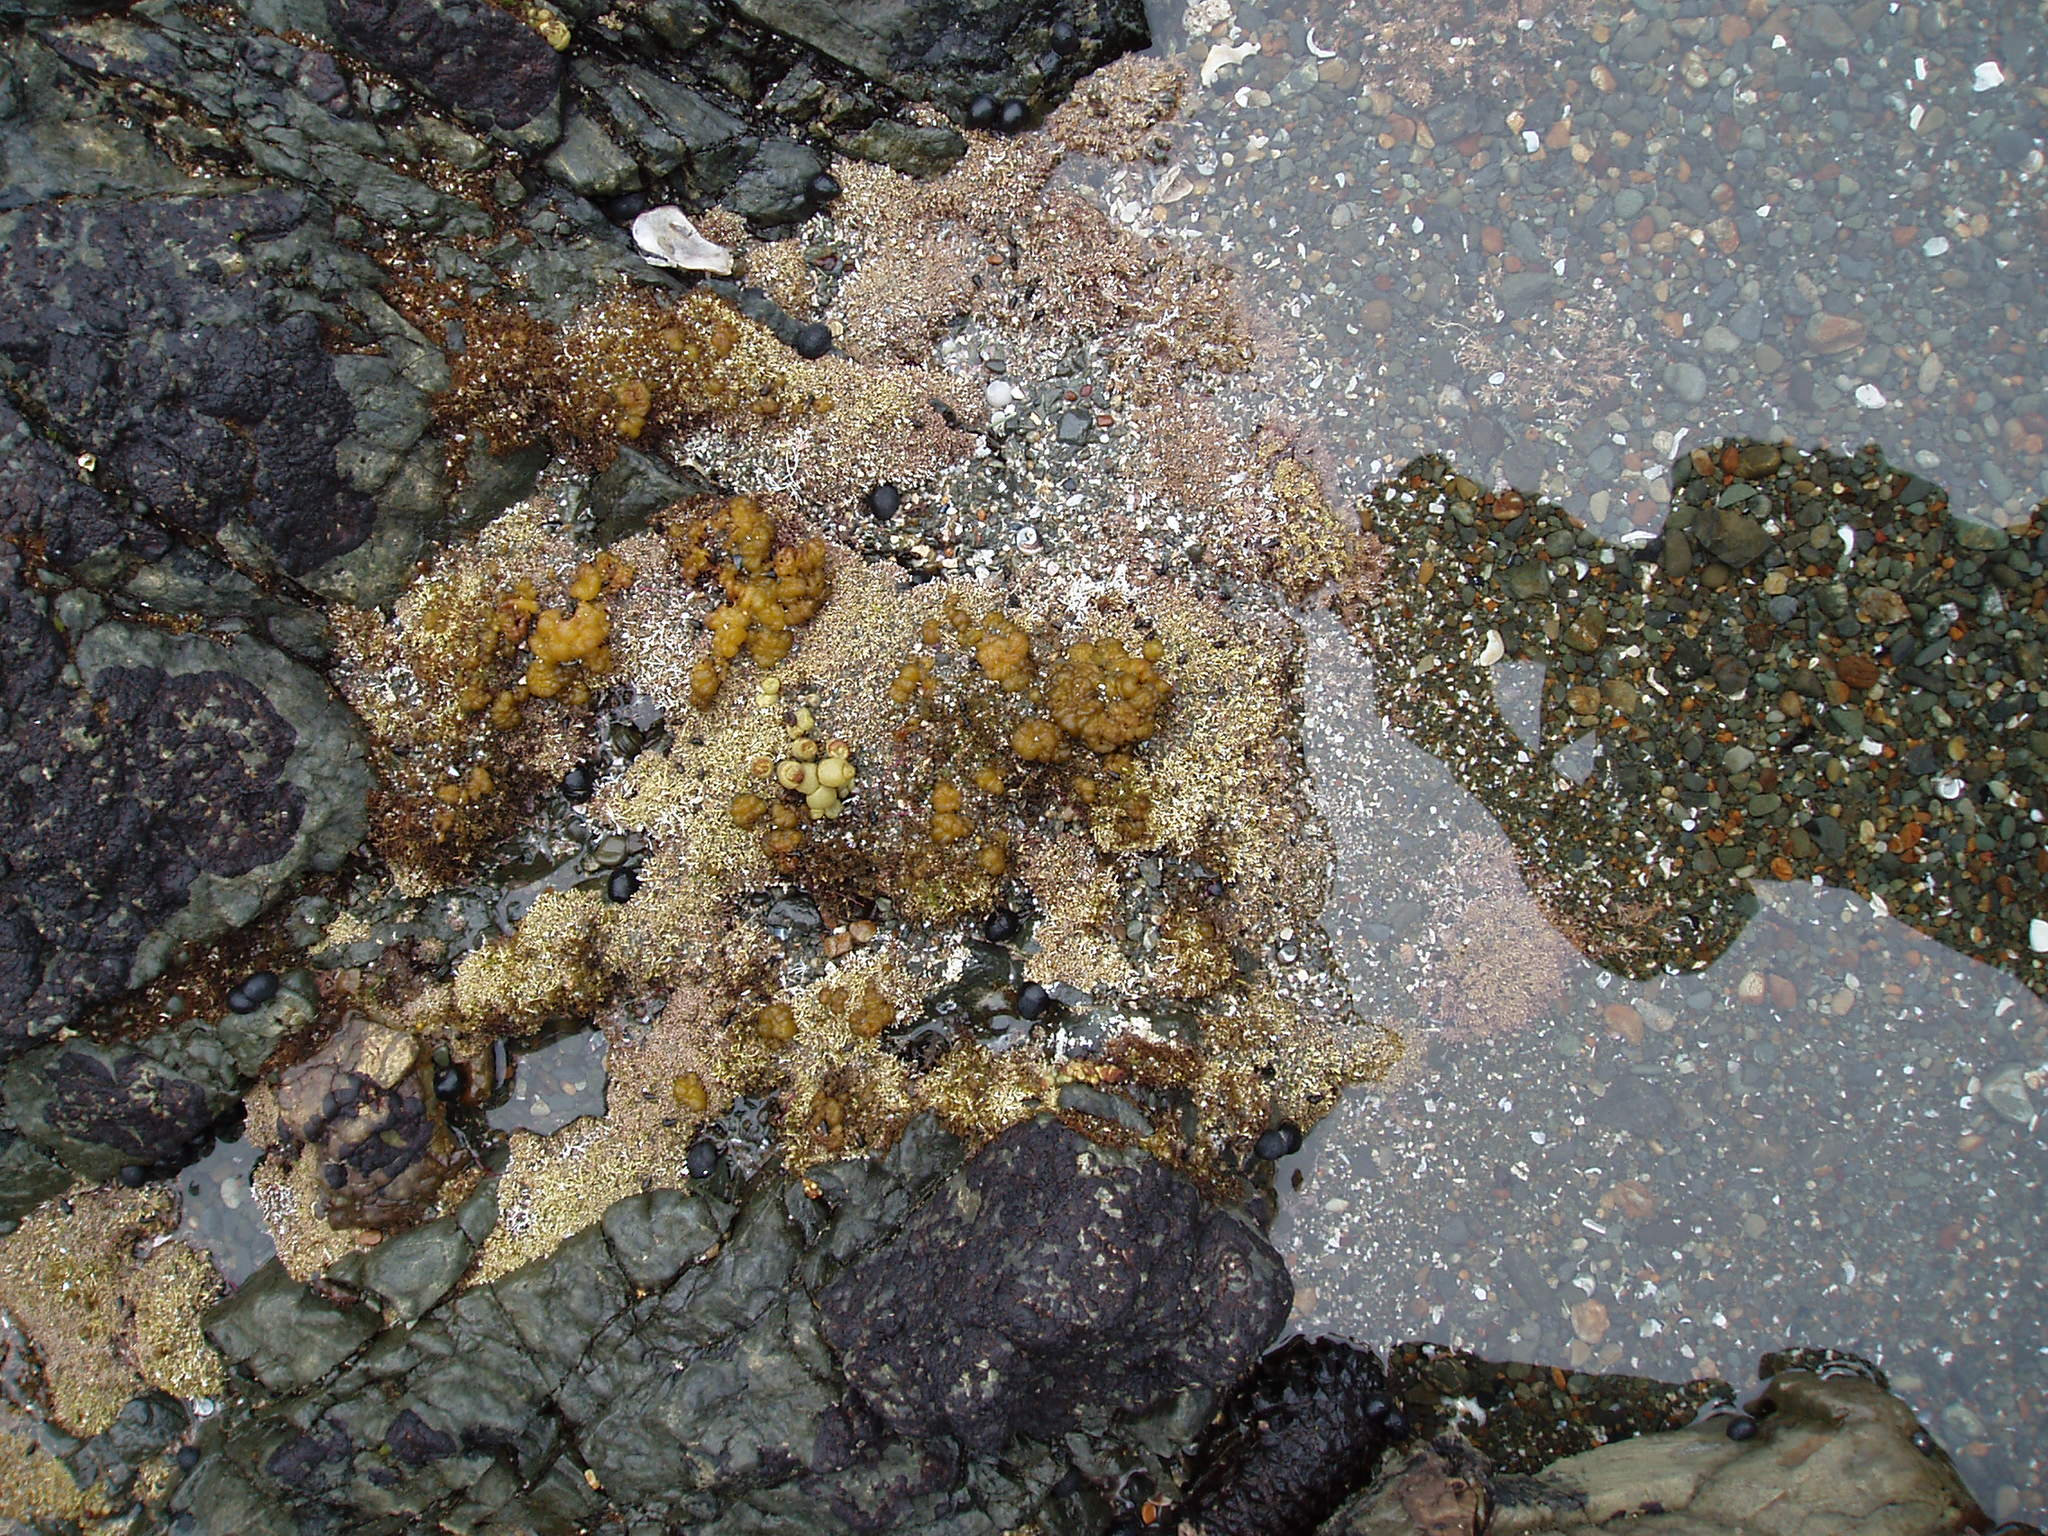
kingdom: Chromista
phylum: Ochrophyta
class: Phaeophyceae
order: Ectocarpales
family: Chordariaceae
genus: Leathesia
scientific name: Leathesia marina
